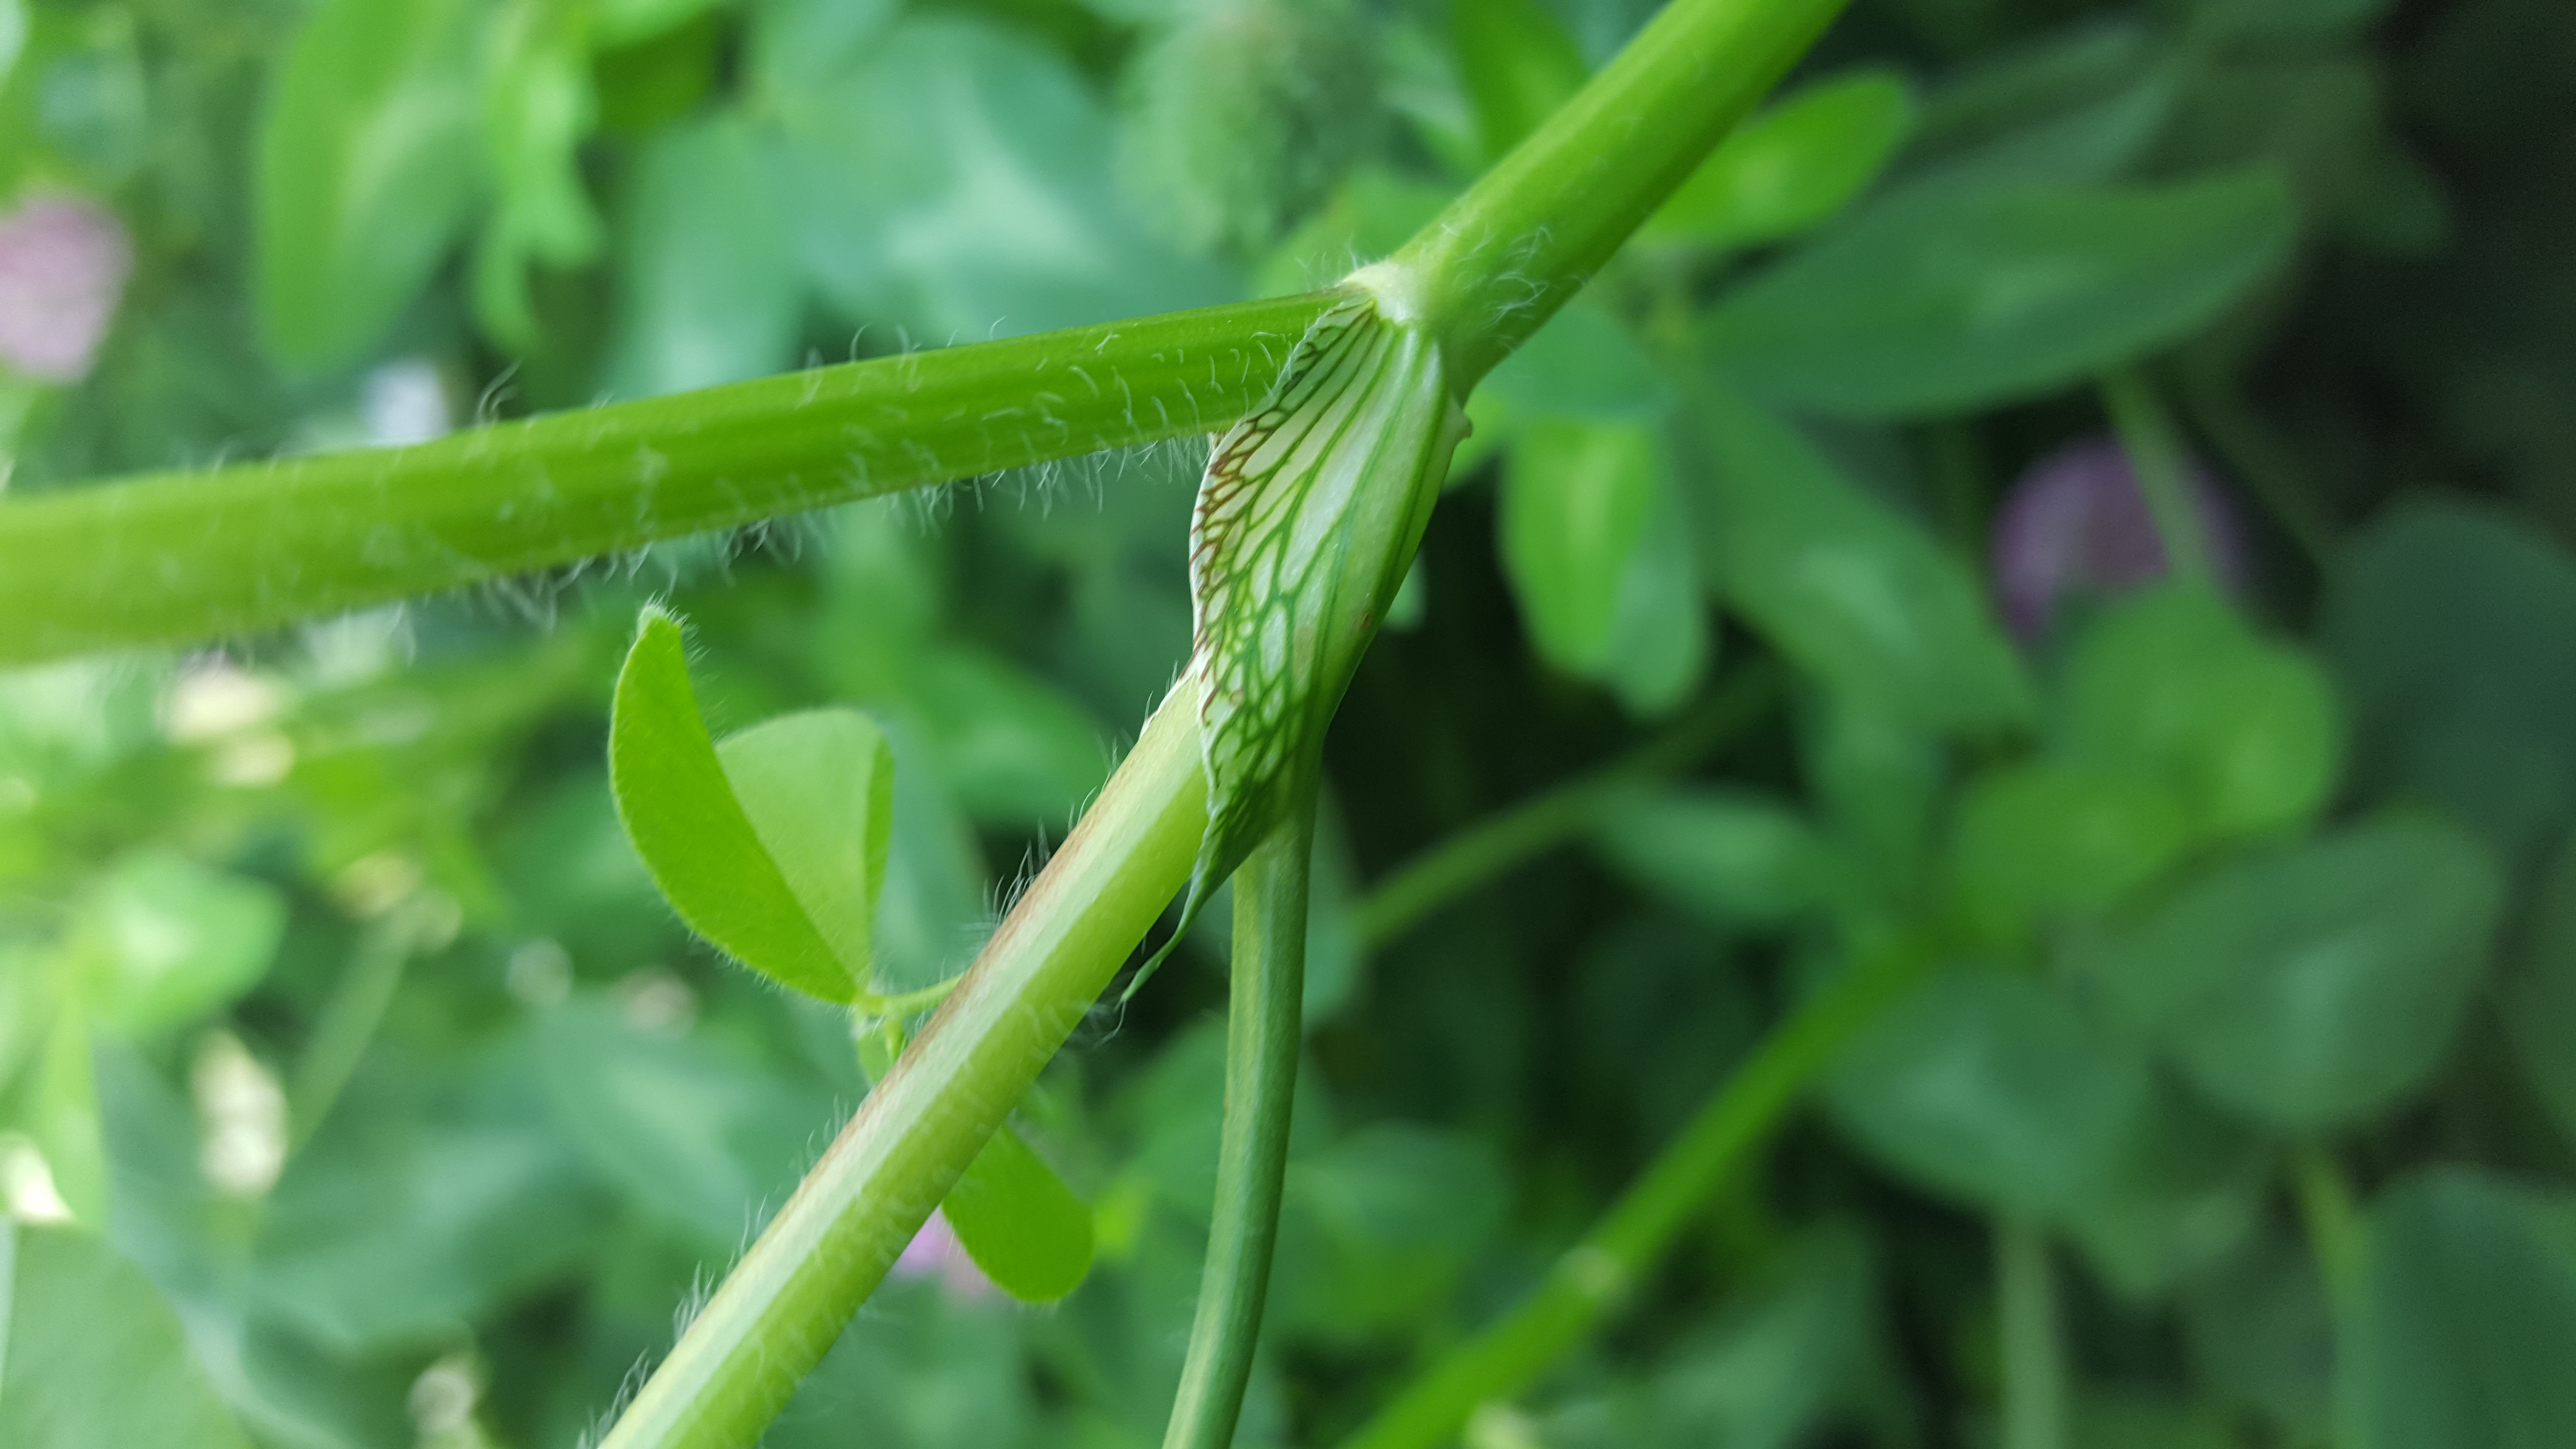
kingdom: Plantae
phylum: Tracheophyta
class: Magnoliopsida
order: Fabales
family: Fabaceae
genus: Trifolium
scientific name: Trifolium pratense
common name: Red clover
